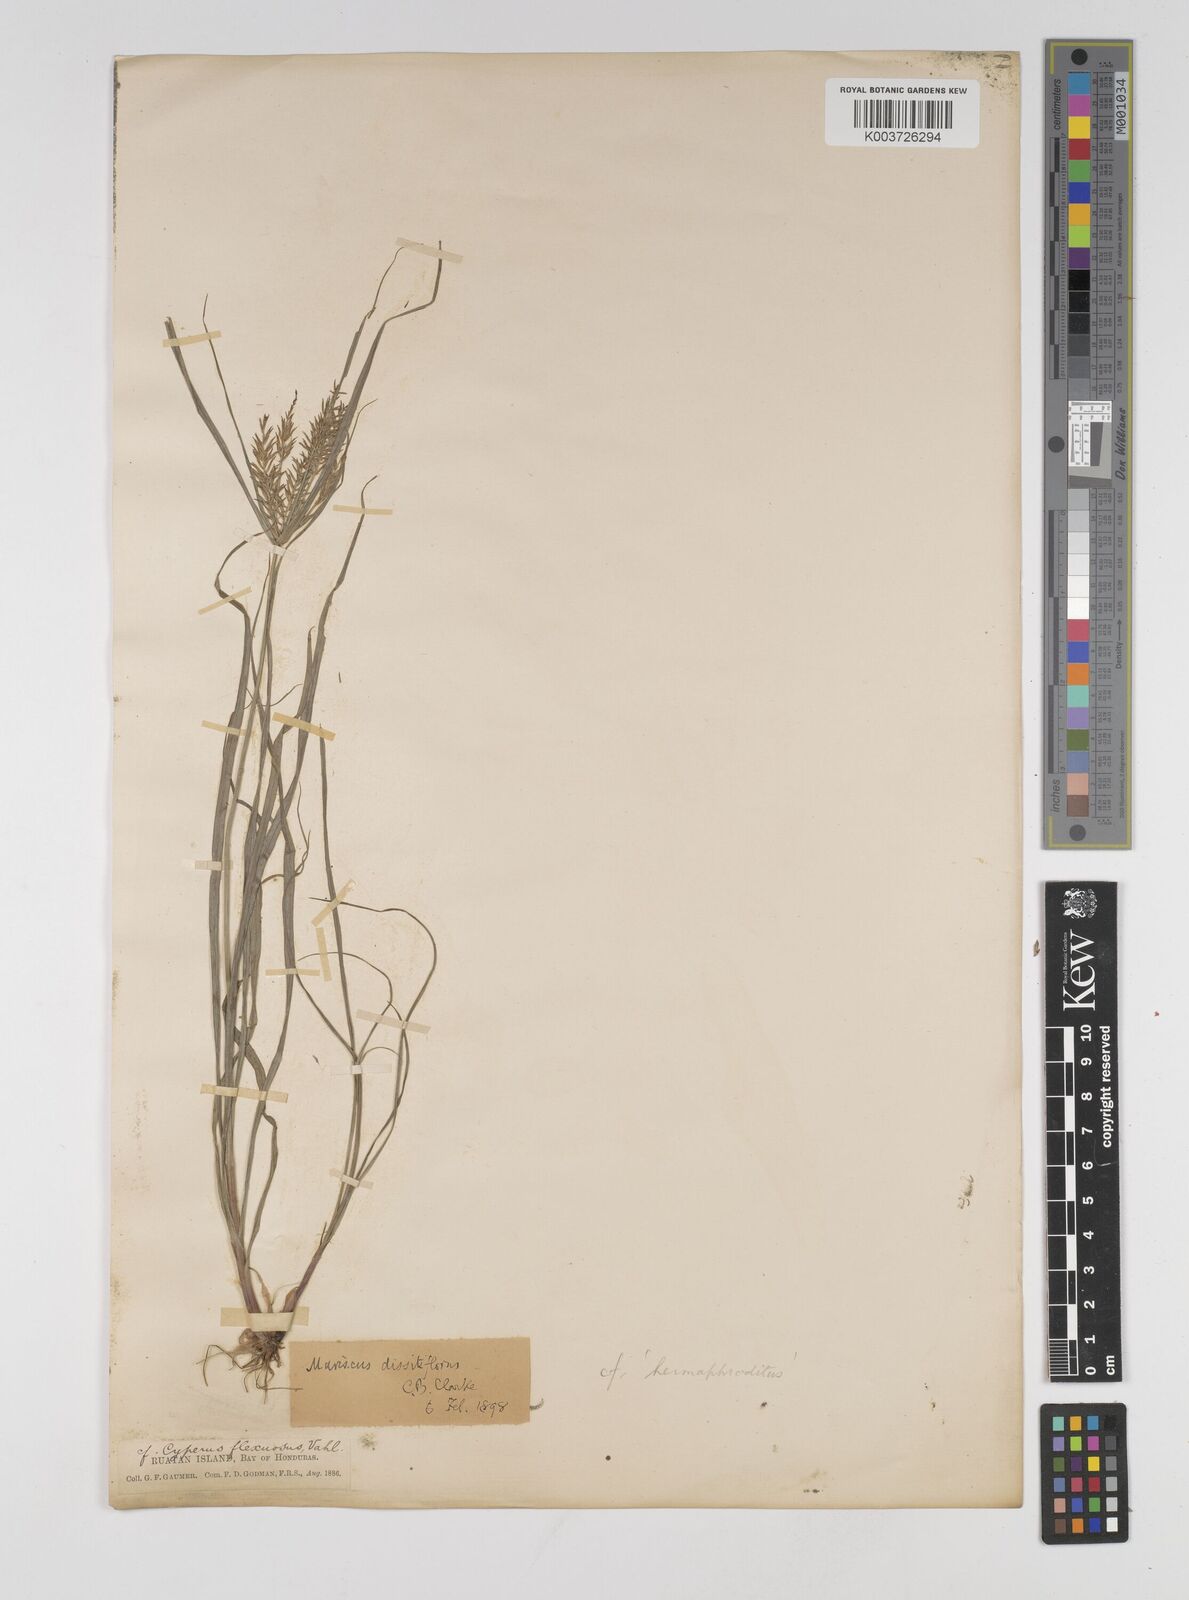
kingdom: Plantae
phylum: Tracheophyta
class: Liliopsida
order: Poales
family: Cyperaceae
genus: Cyperus
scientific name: Cyperus thyrsiflorus
